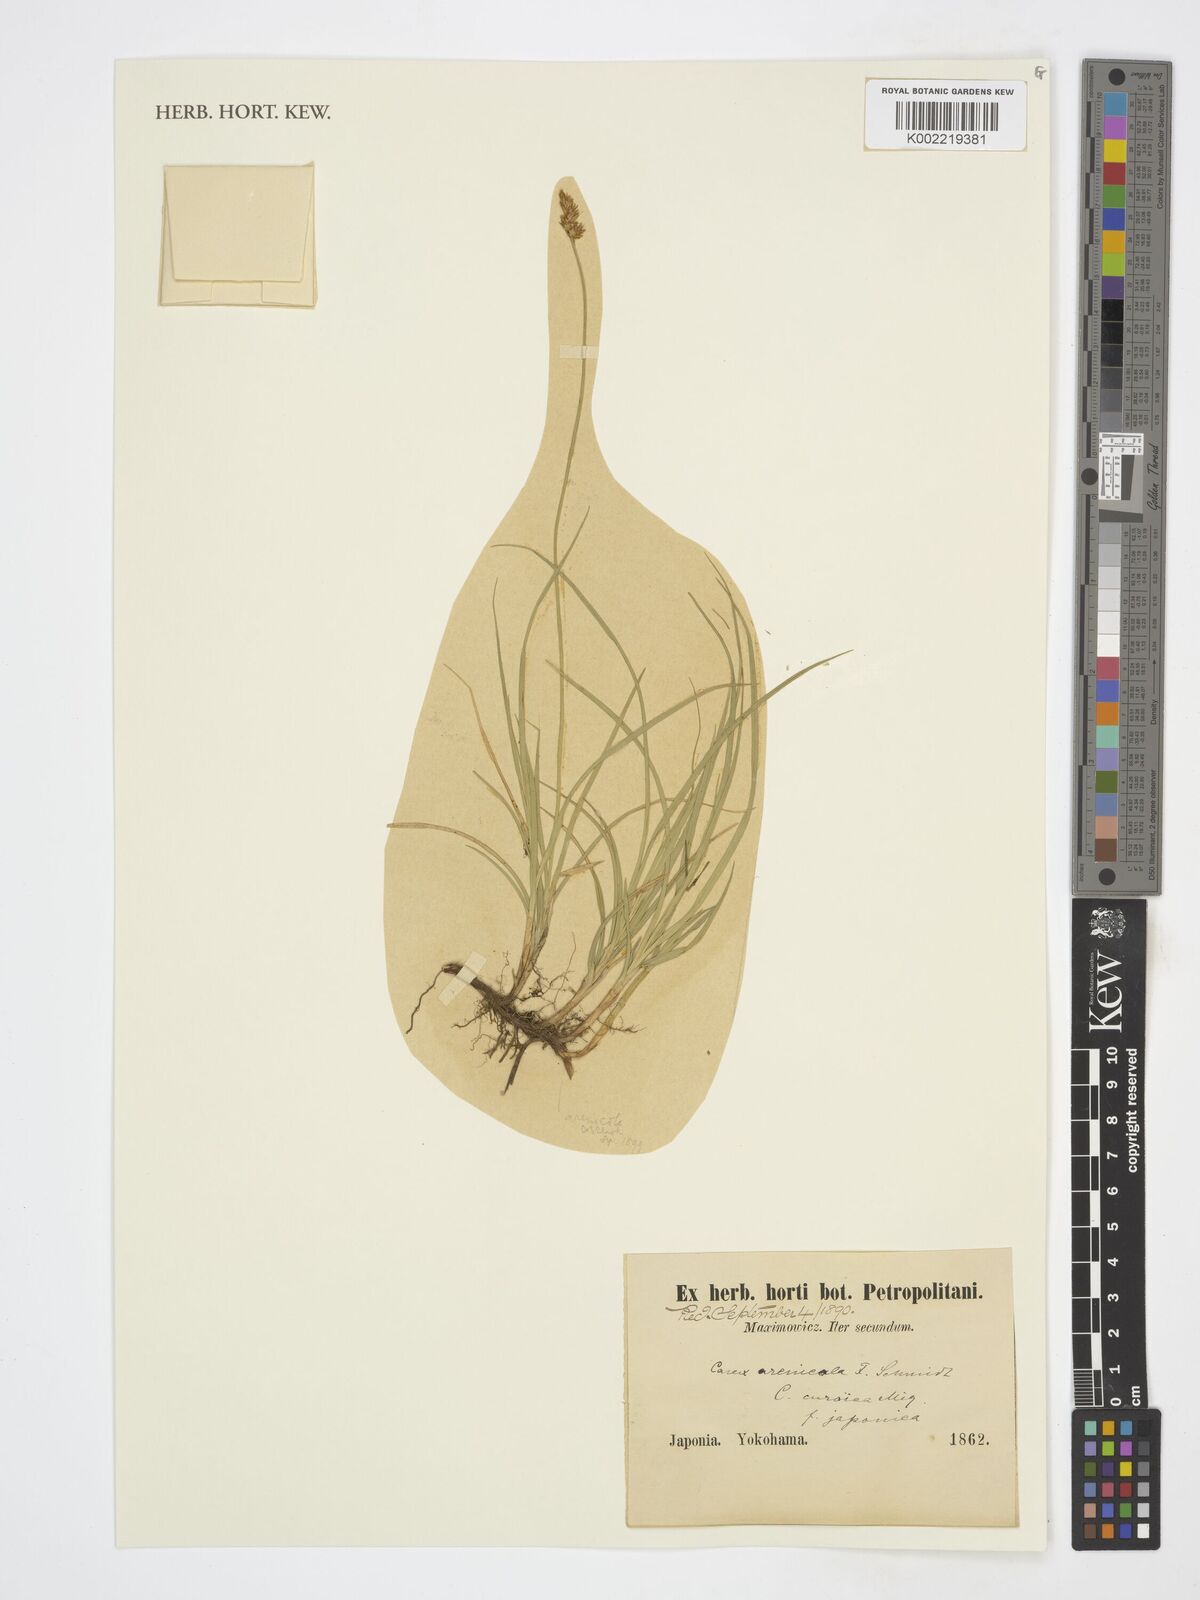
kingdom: Plantae
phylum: Tracheophyta
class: Liliopsida
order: Poales
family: Cyperaceae
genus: Carex
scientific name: Carex arenicola
